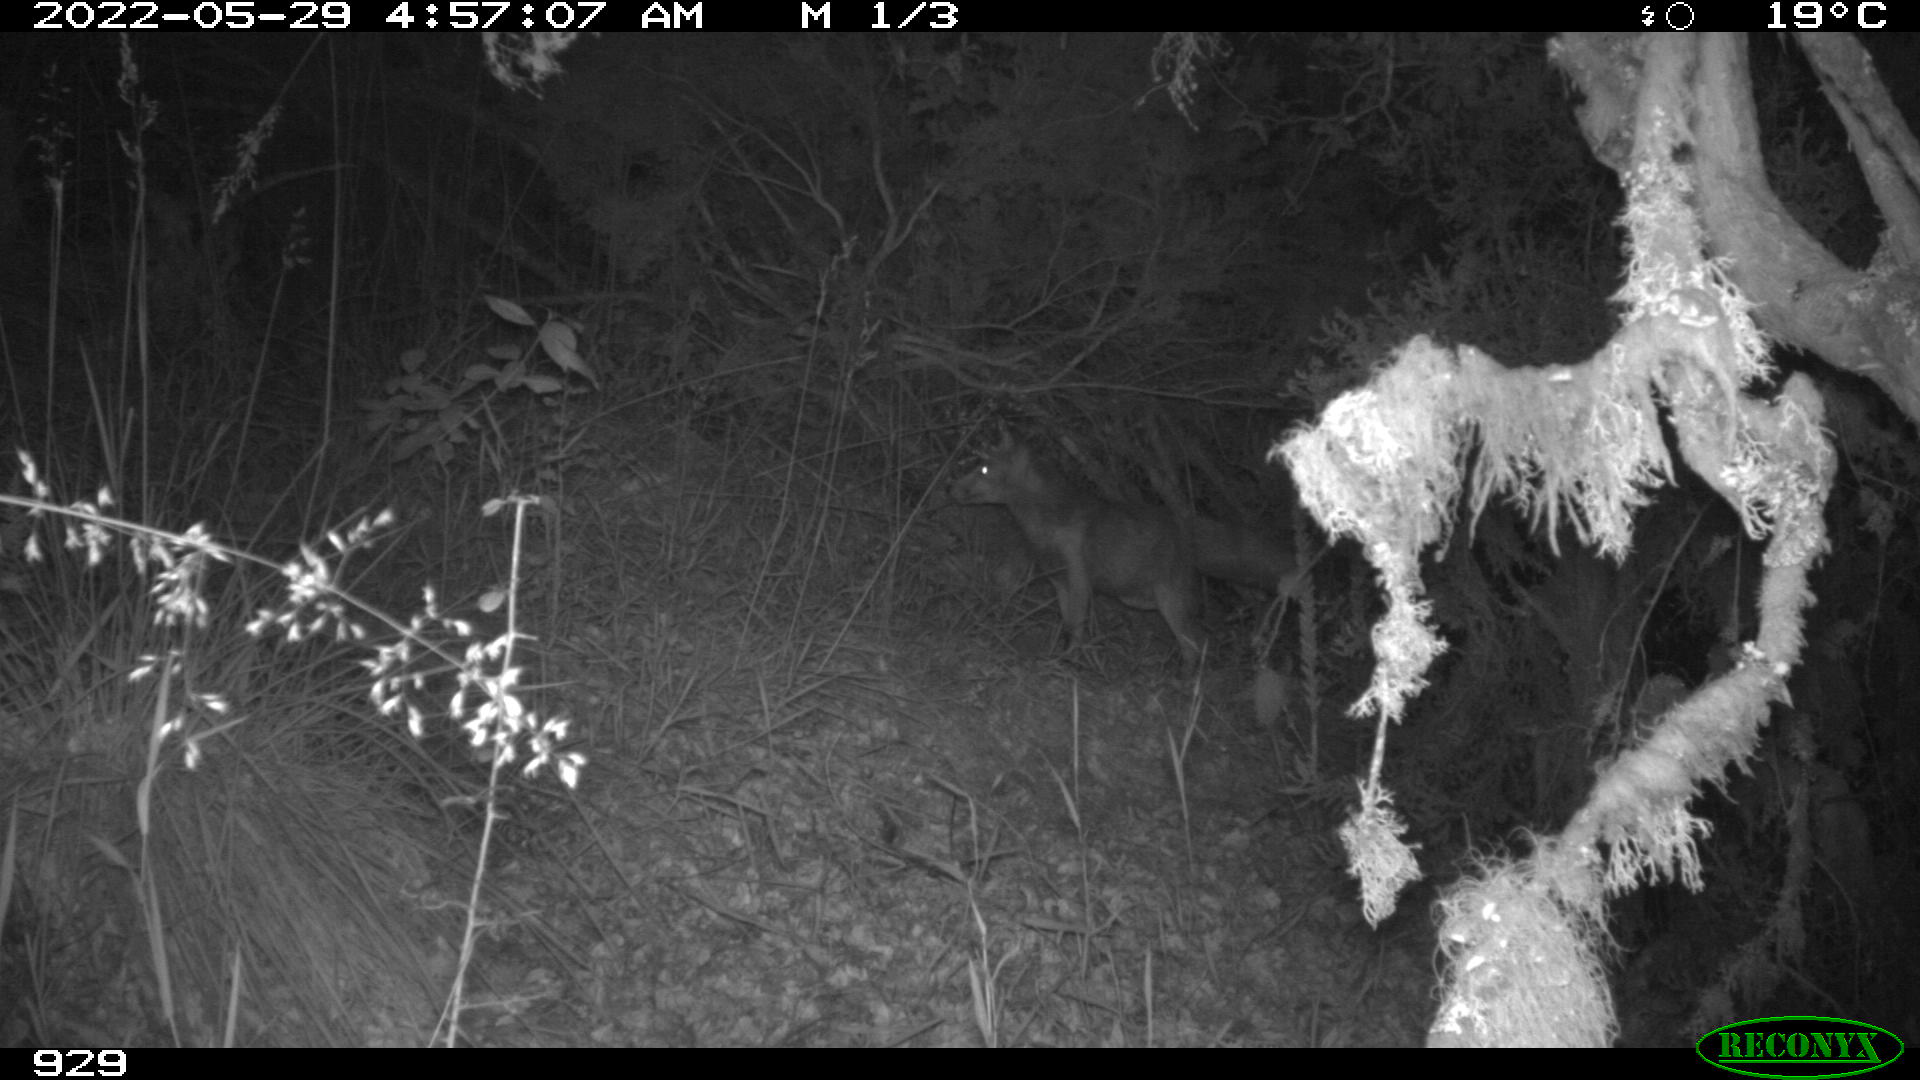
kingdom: Animalia
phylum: Chordata
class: Mammalia
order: Carnivora
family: Canidae
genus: Vulpes
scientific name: Vulpes vulpes
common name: Red fox
